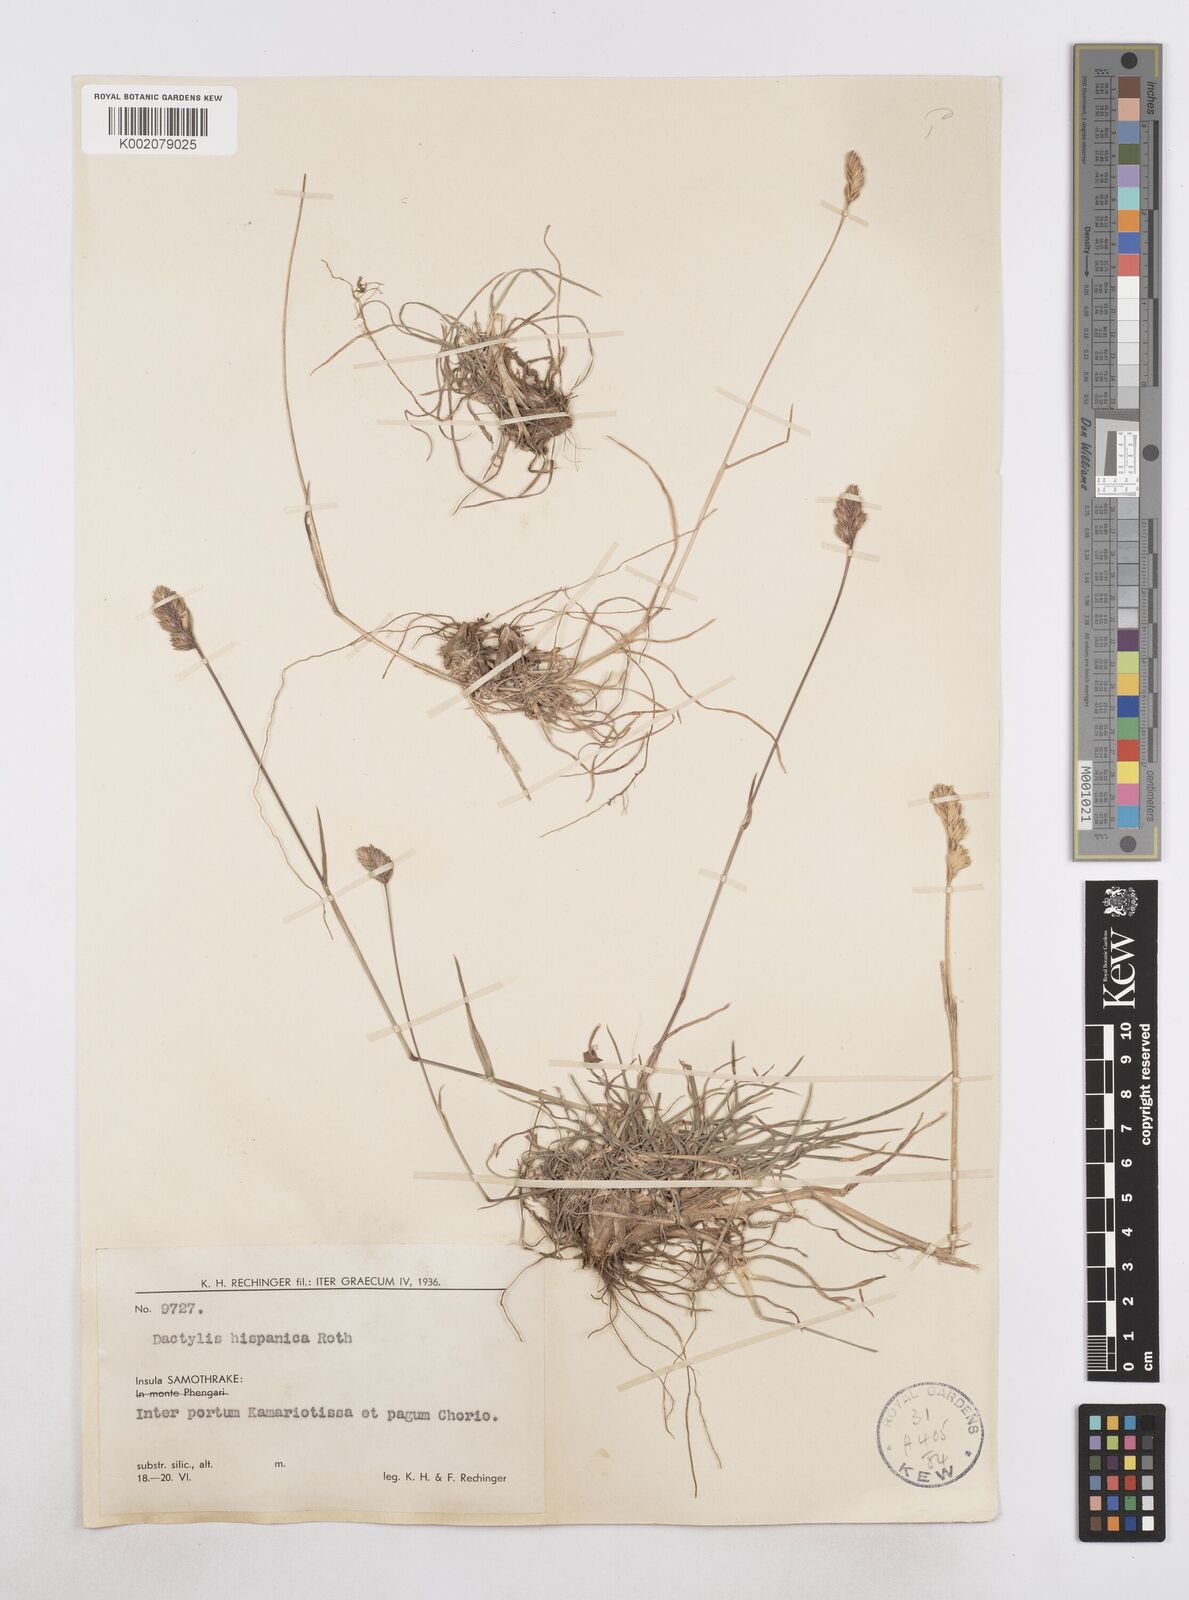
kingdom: Plantae
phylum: Tracheophyta
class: Liliopsida
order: Poales
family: Poaceae
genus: Dactylis
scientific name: Dactylis glomerata
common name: Orchardgrass
